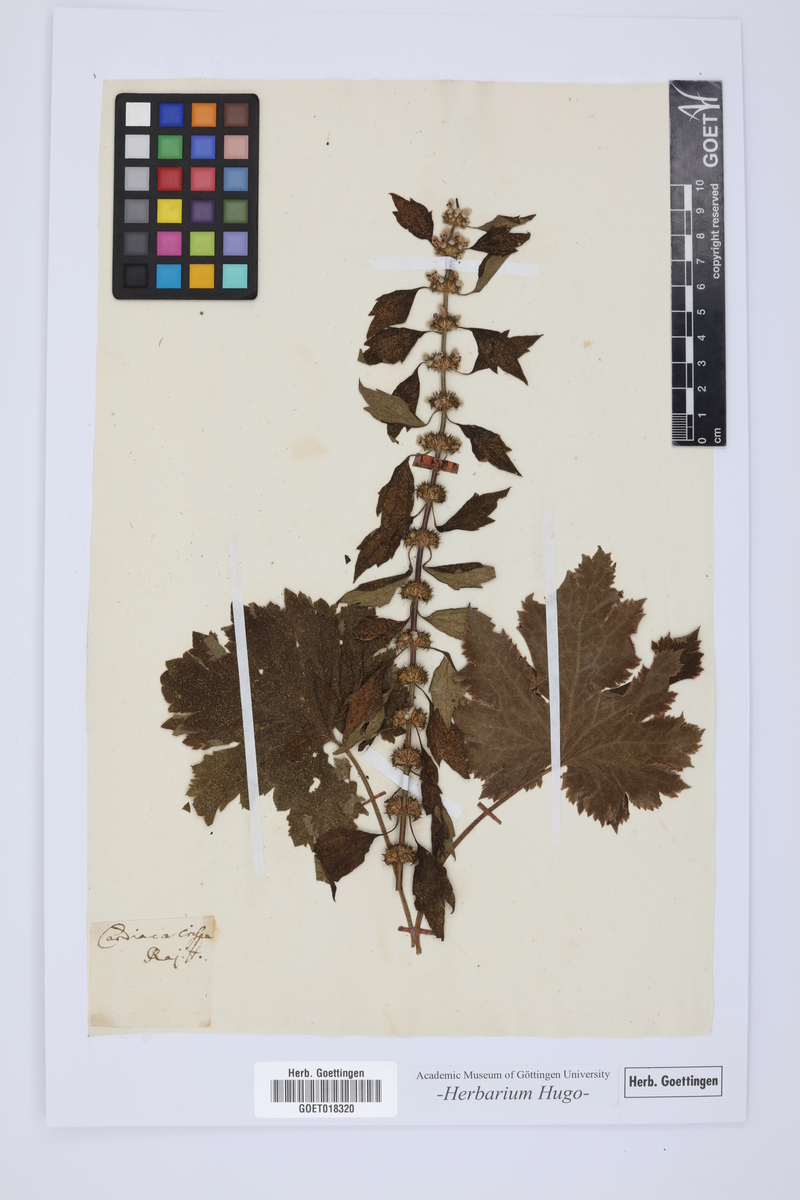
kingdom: Plantae
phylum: Tracheophyta
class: Magnoliopsida
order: Lamiales
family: Lamiaceae
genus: Leonurus
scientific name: Leonurus cardiaca
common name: Motherwort
